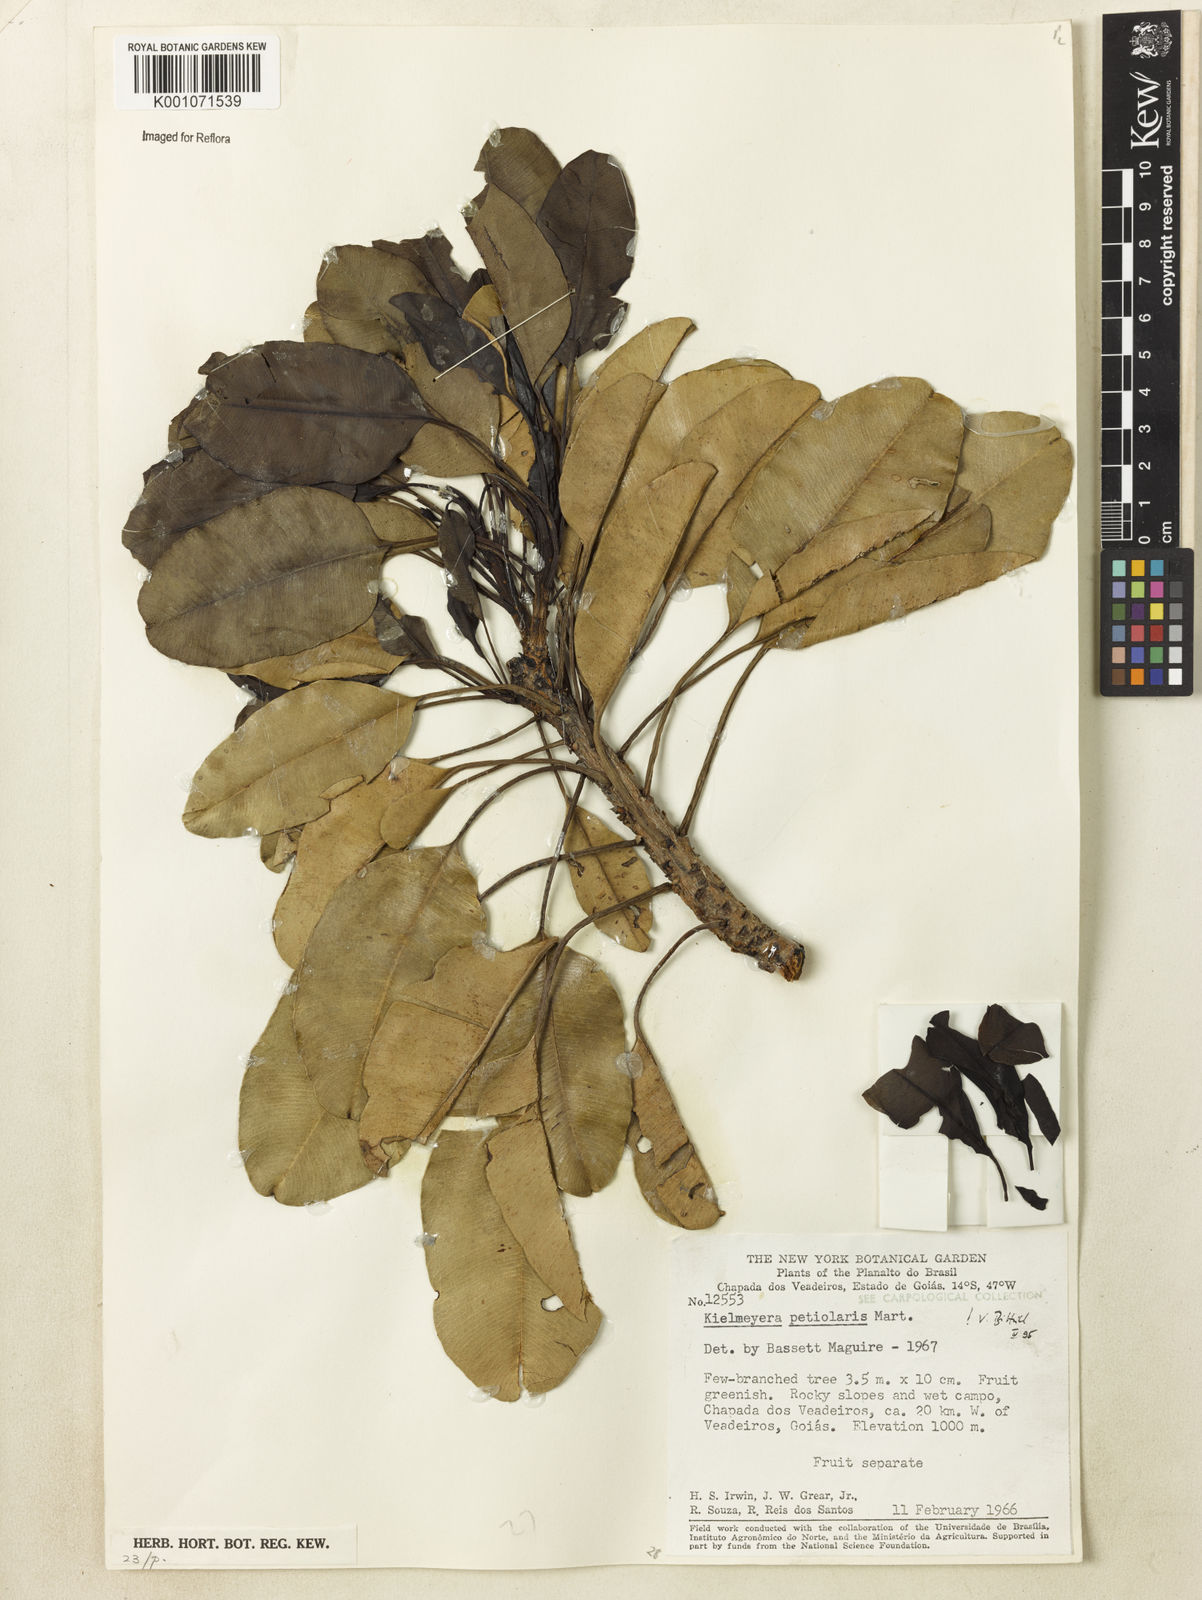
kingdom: Plantae
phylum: Tracheophyta
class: Magnoliopsida
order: Malpighiales
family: Calophyllaceae
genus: Kielmeyera
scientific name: Kielmeyera petiolaris
